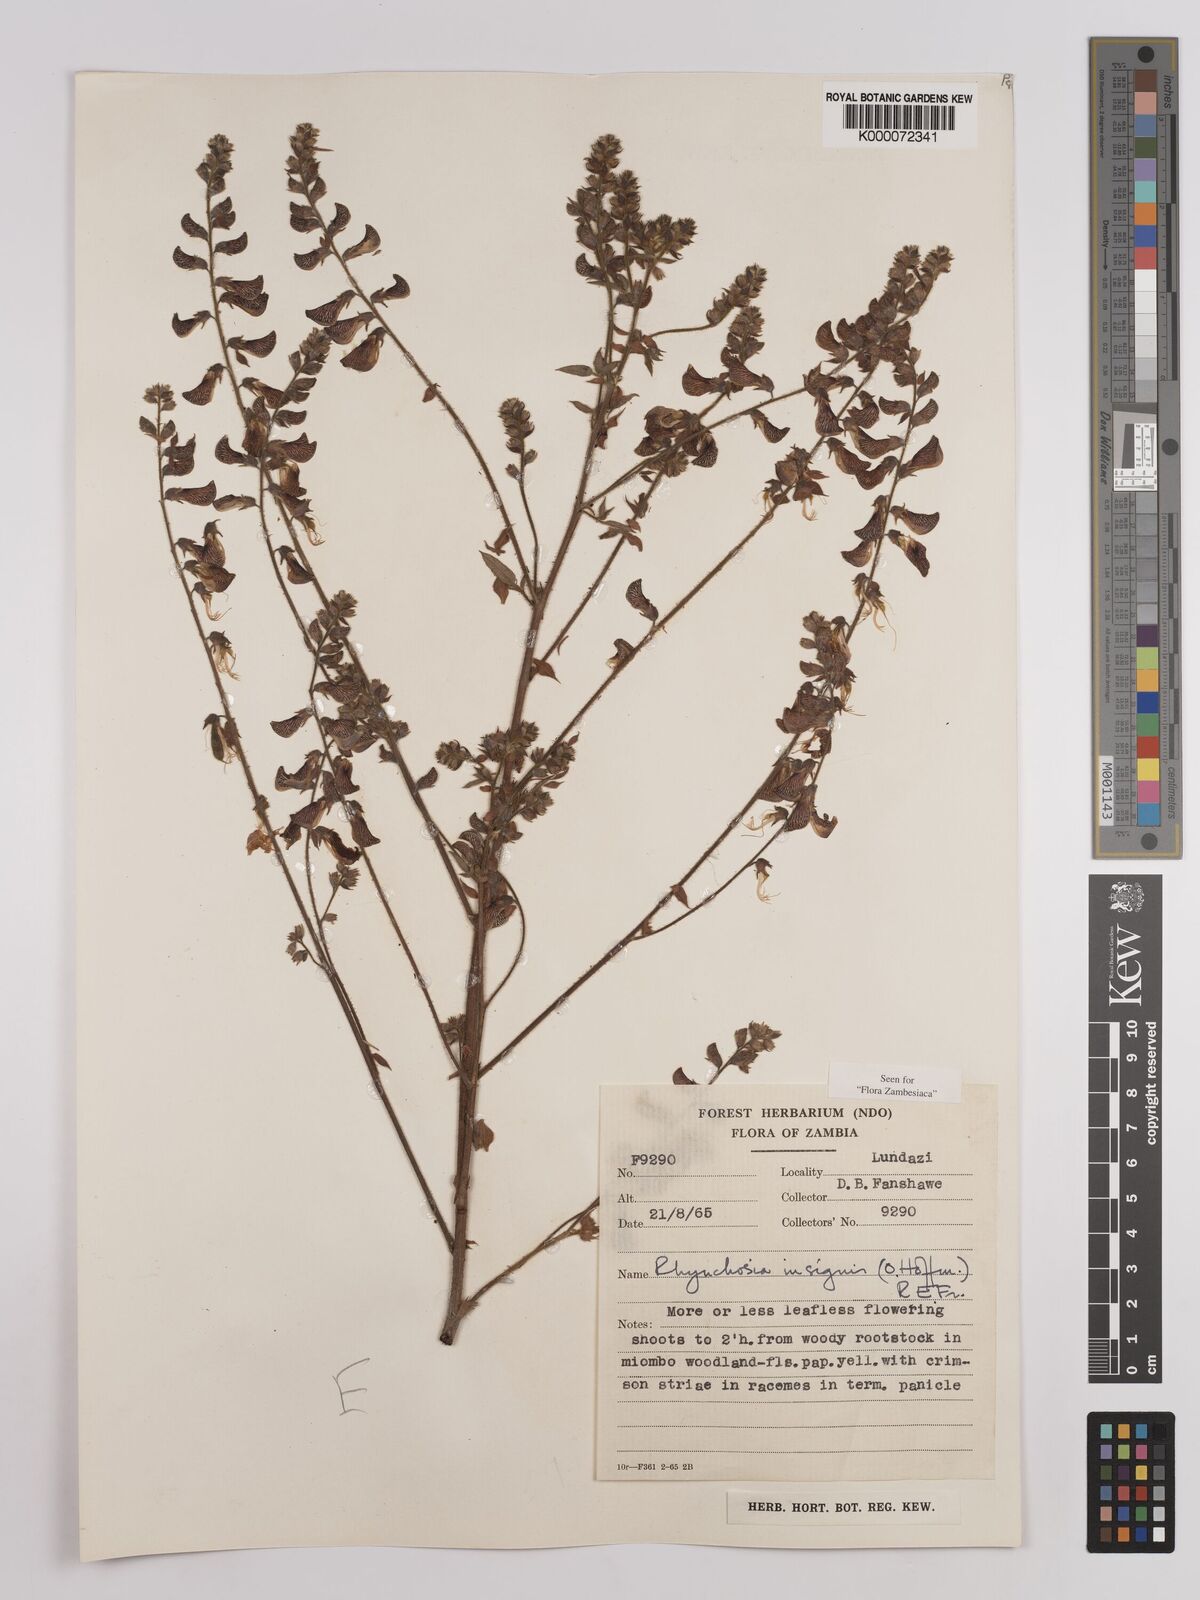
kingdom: Plantae
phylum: Tracheophyta
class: Magnoliopsida
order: Fabales
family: Fabaceae
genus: Rhynchosia
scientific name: Rhynchosia insignis
